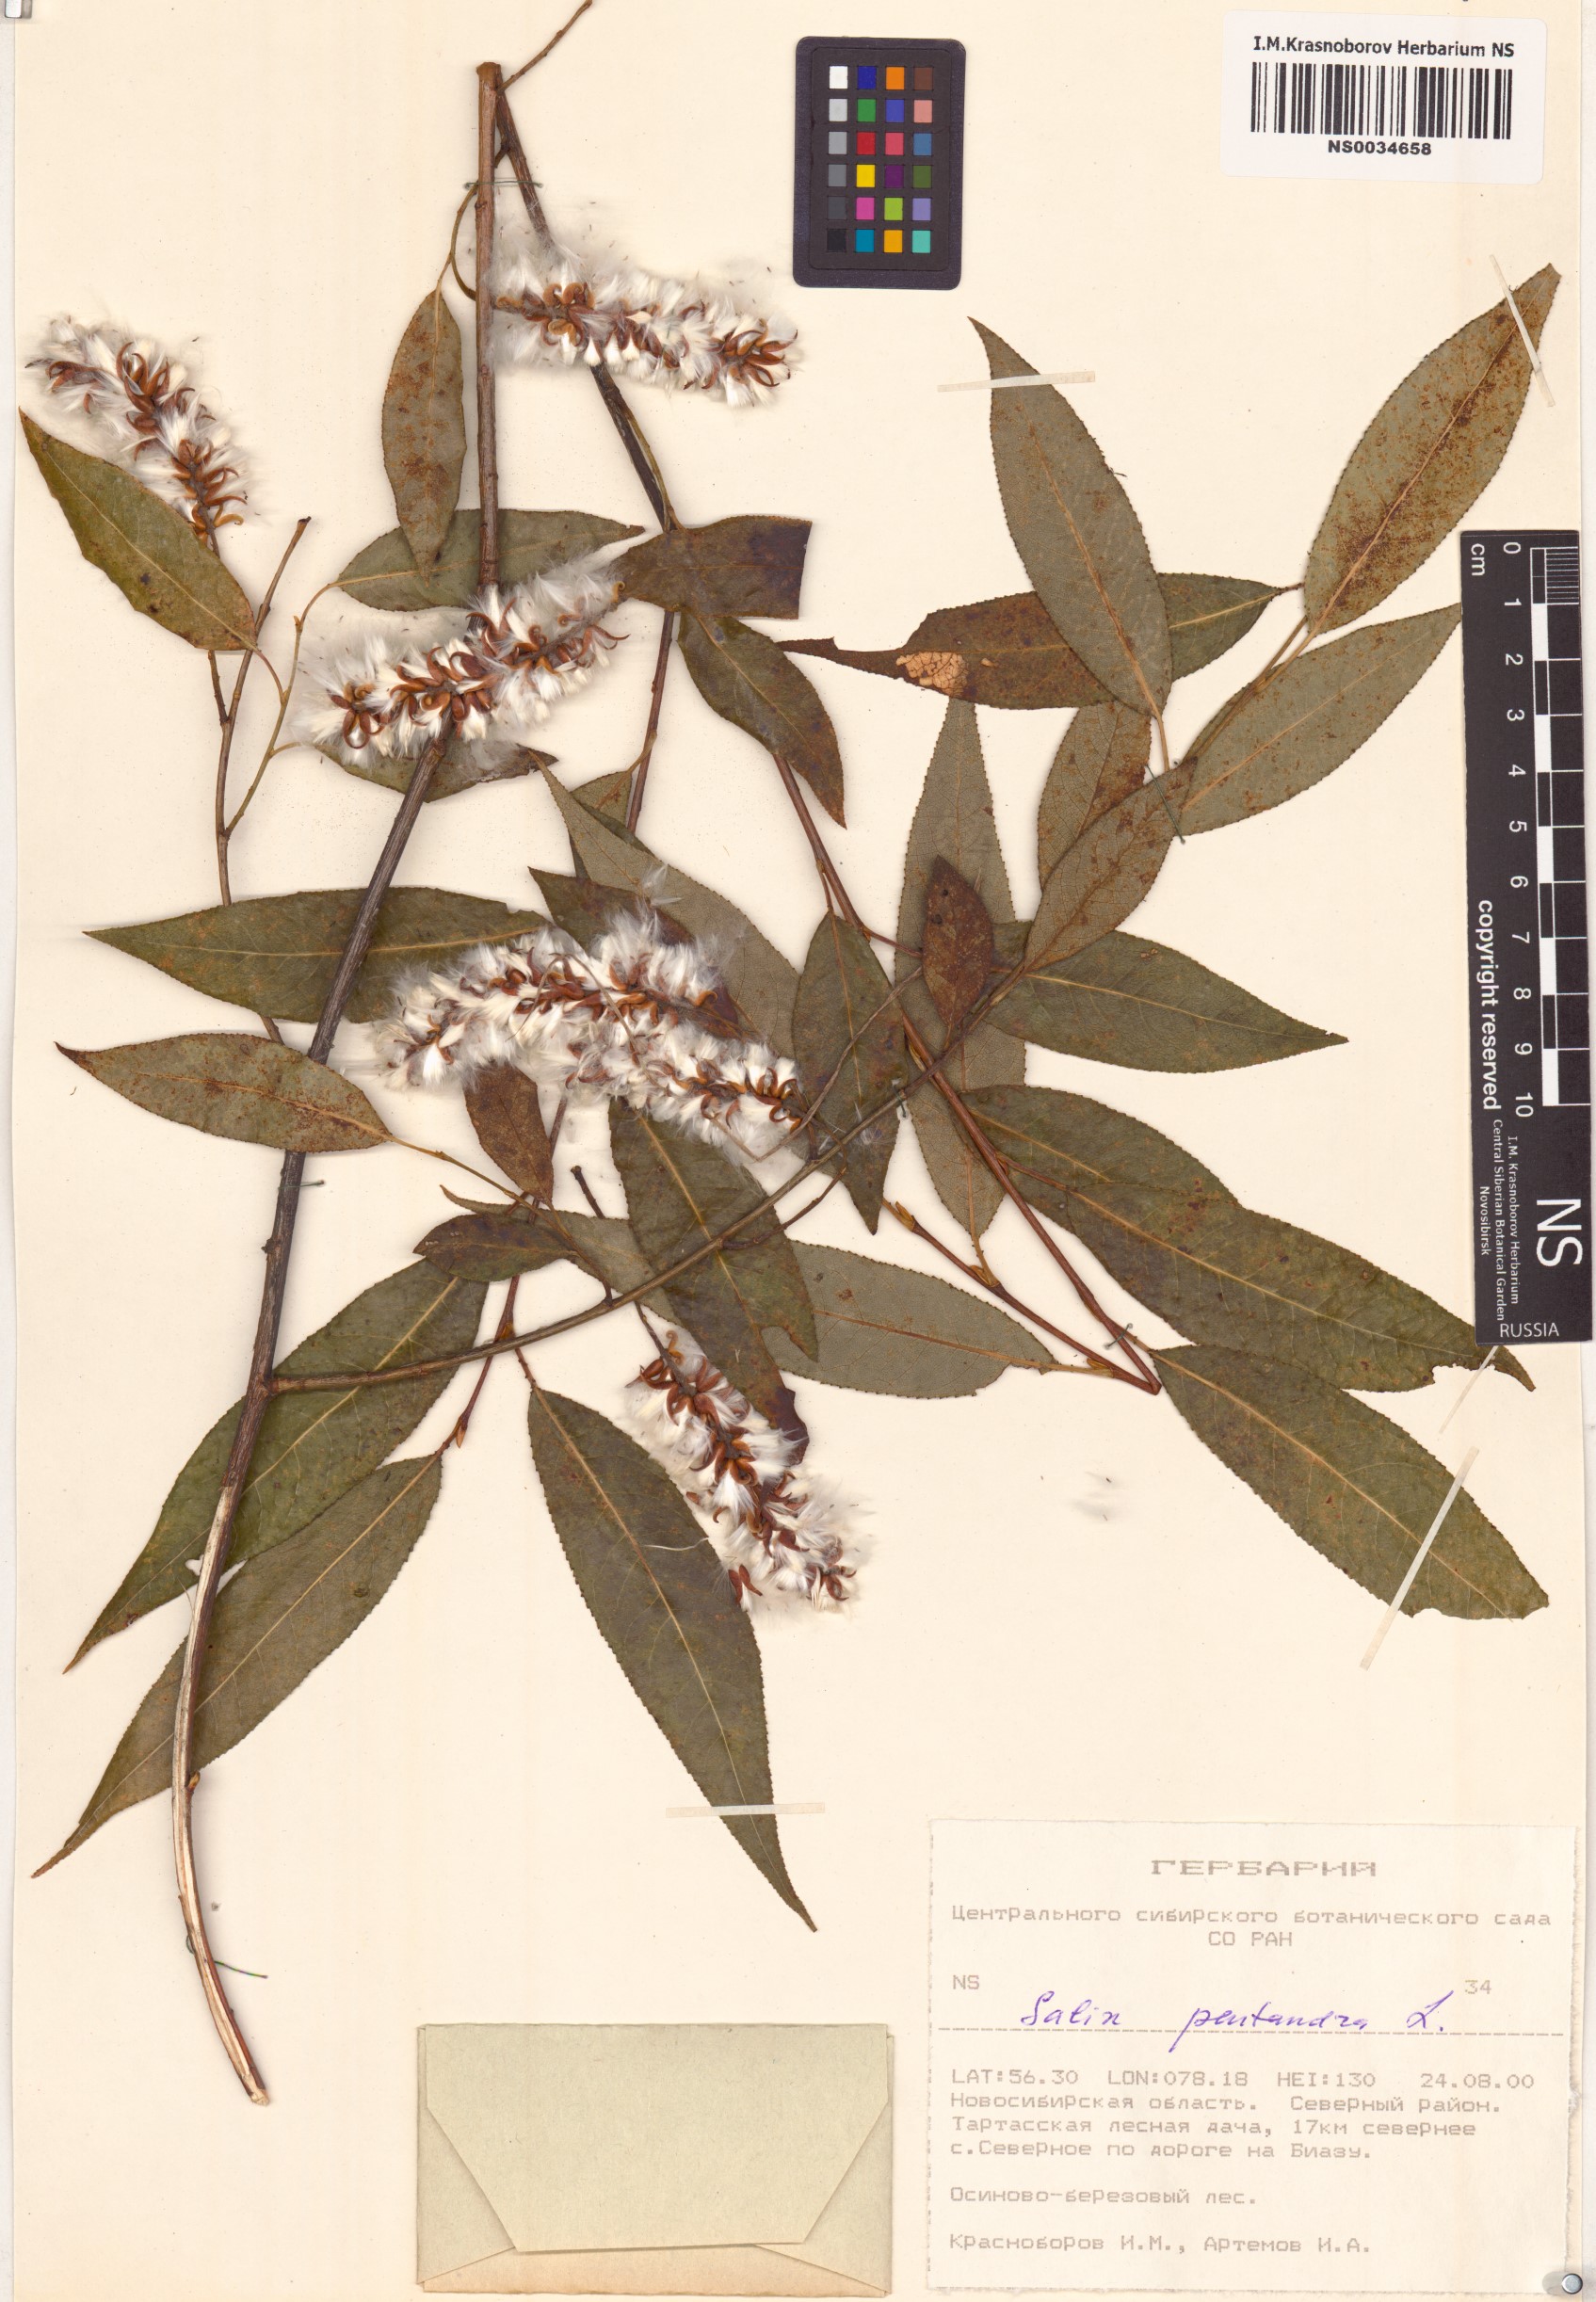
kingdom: Plantae
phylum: Tracheophyta
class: Magnoliopsida
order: Malpighiales
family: Salicaceae
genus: Salix
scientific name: Salix pentandra
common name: Bay willow
